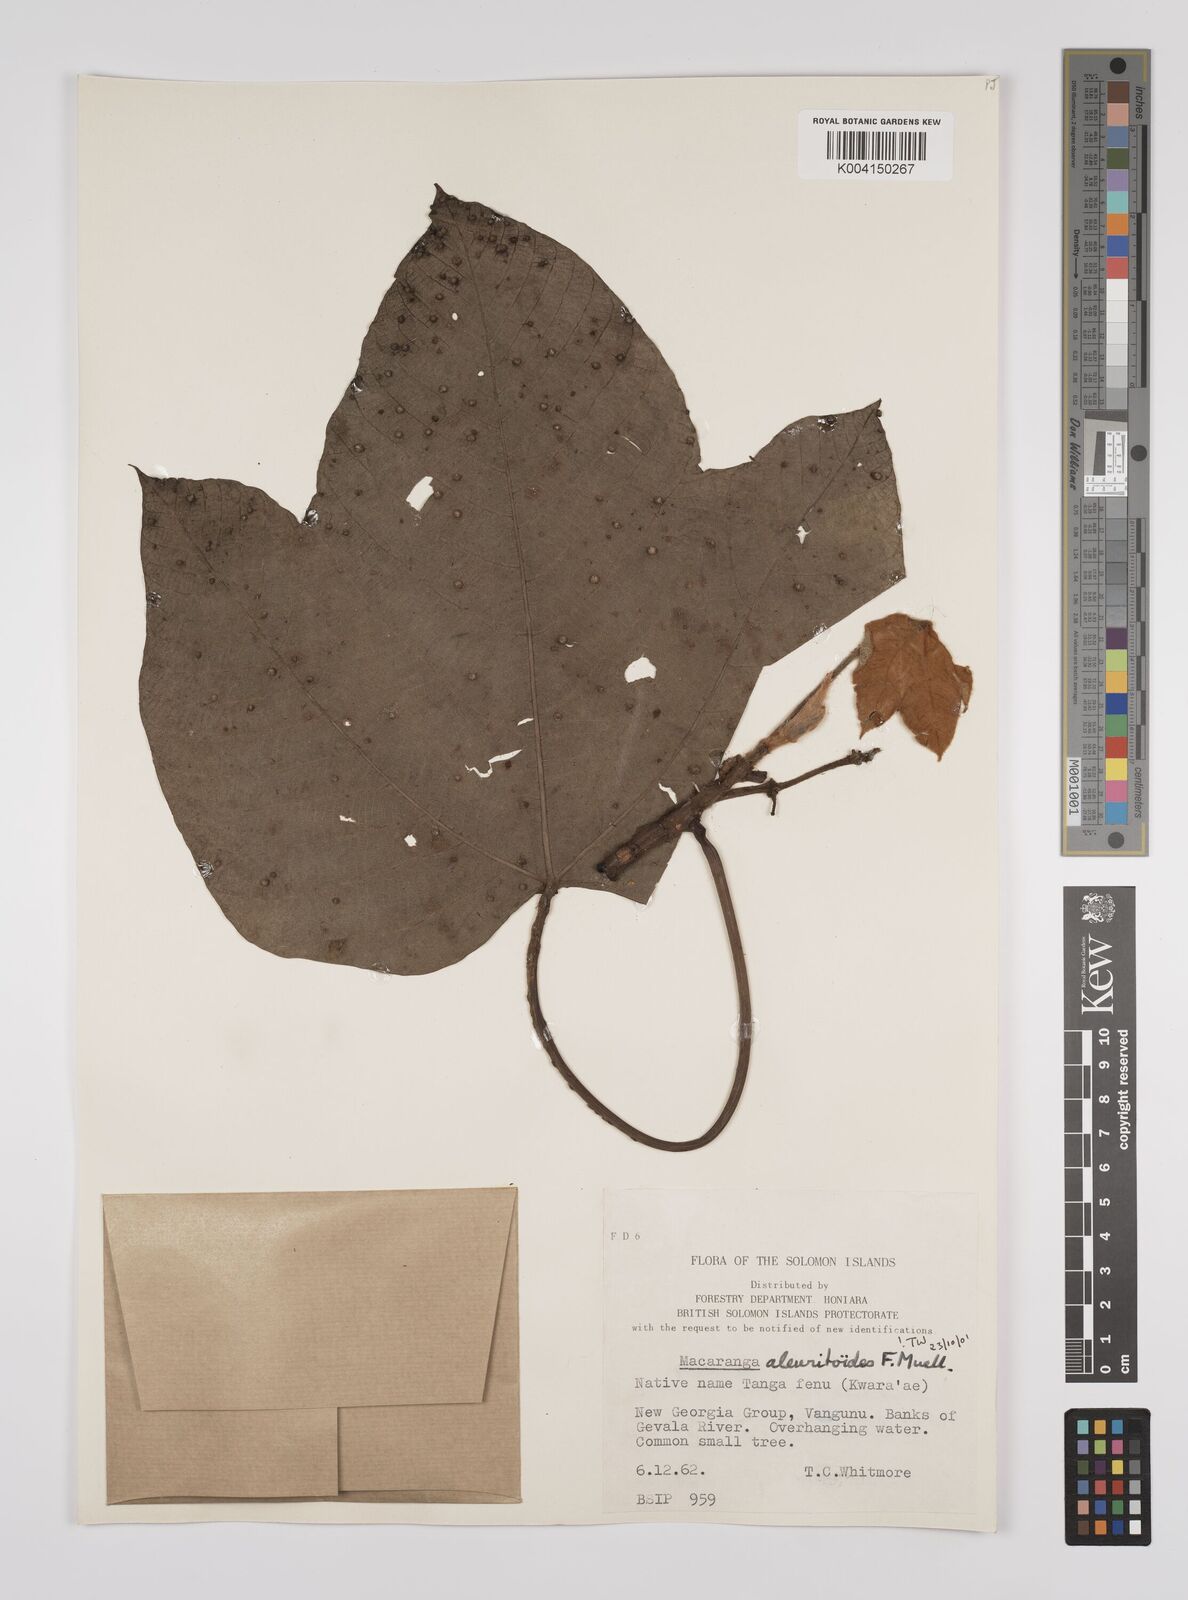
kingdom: Plantae
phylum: Tracheophyta
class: Magnoliopsida
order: Malpighiales
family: Euphorbiaceae
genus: Macaranga
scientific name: Macaranga aleuritoides
